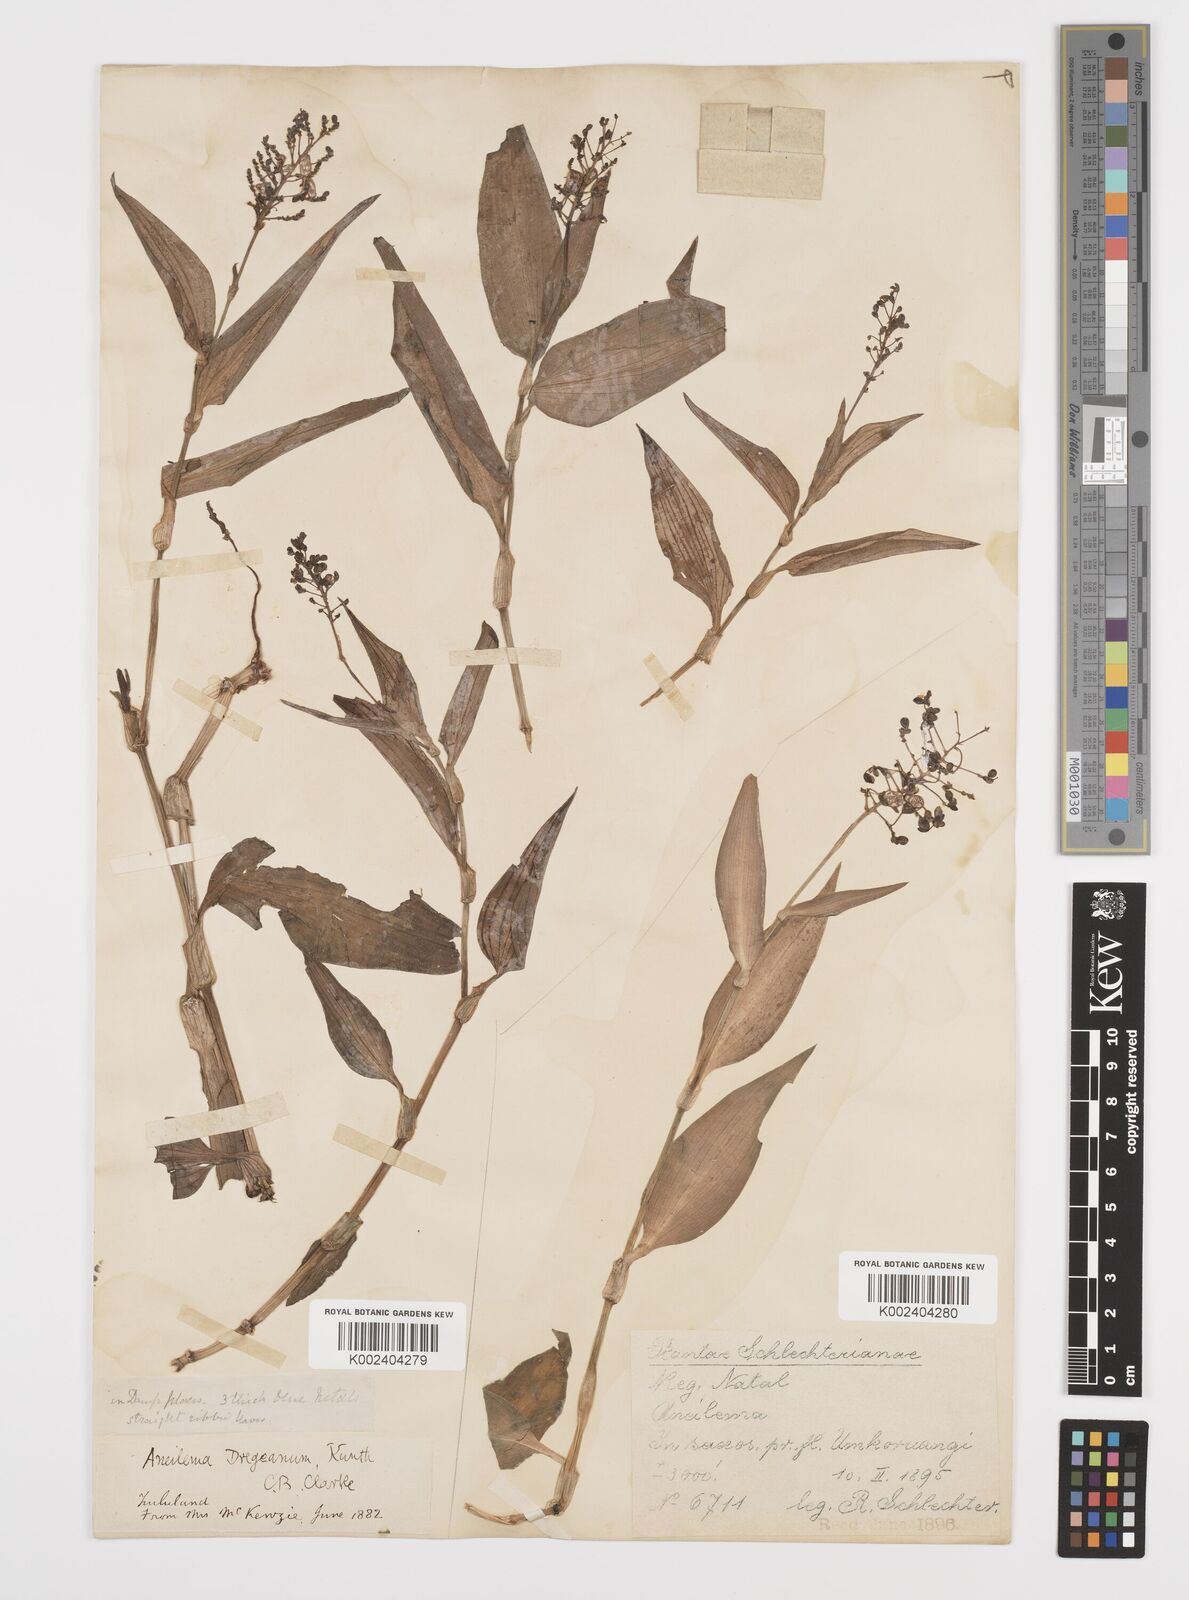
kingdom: Plantae
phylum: Tracheophyta
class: Liliopsida
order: Commelinales
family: Commelinaceae
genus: Aneilema
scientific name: Aneilema dregeanum
